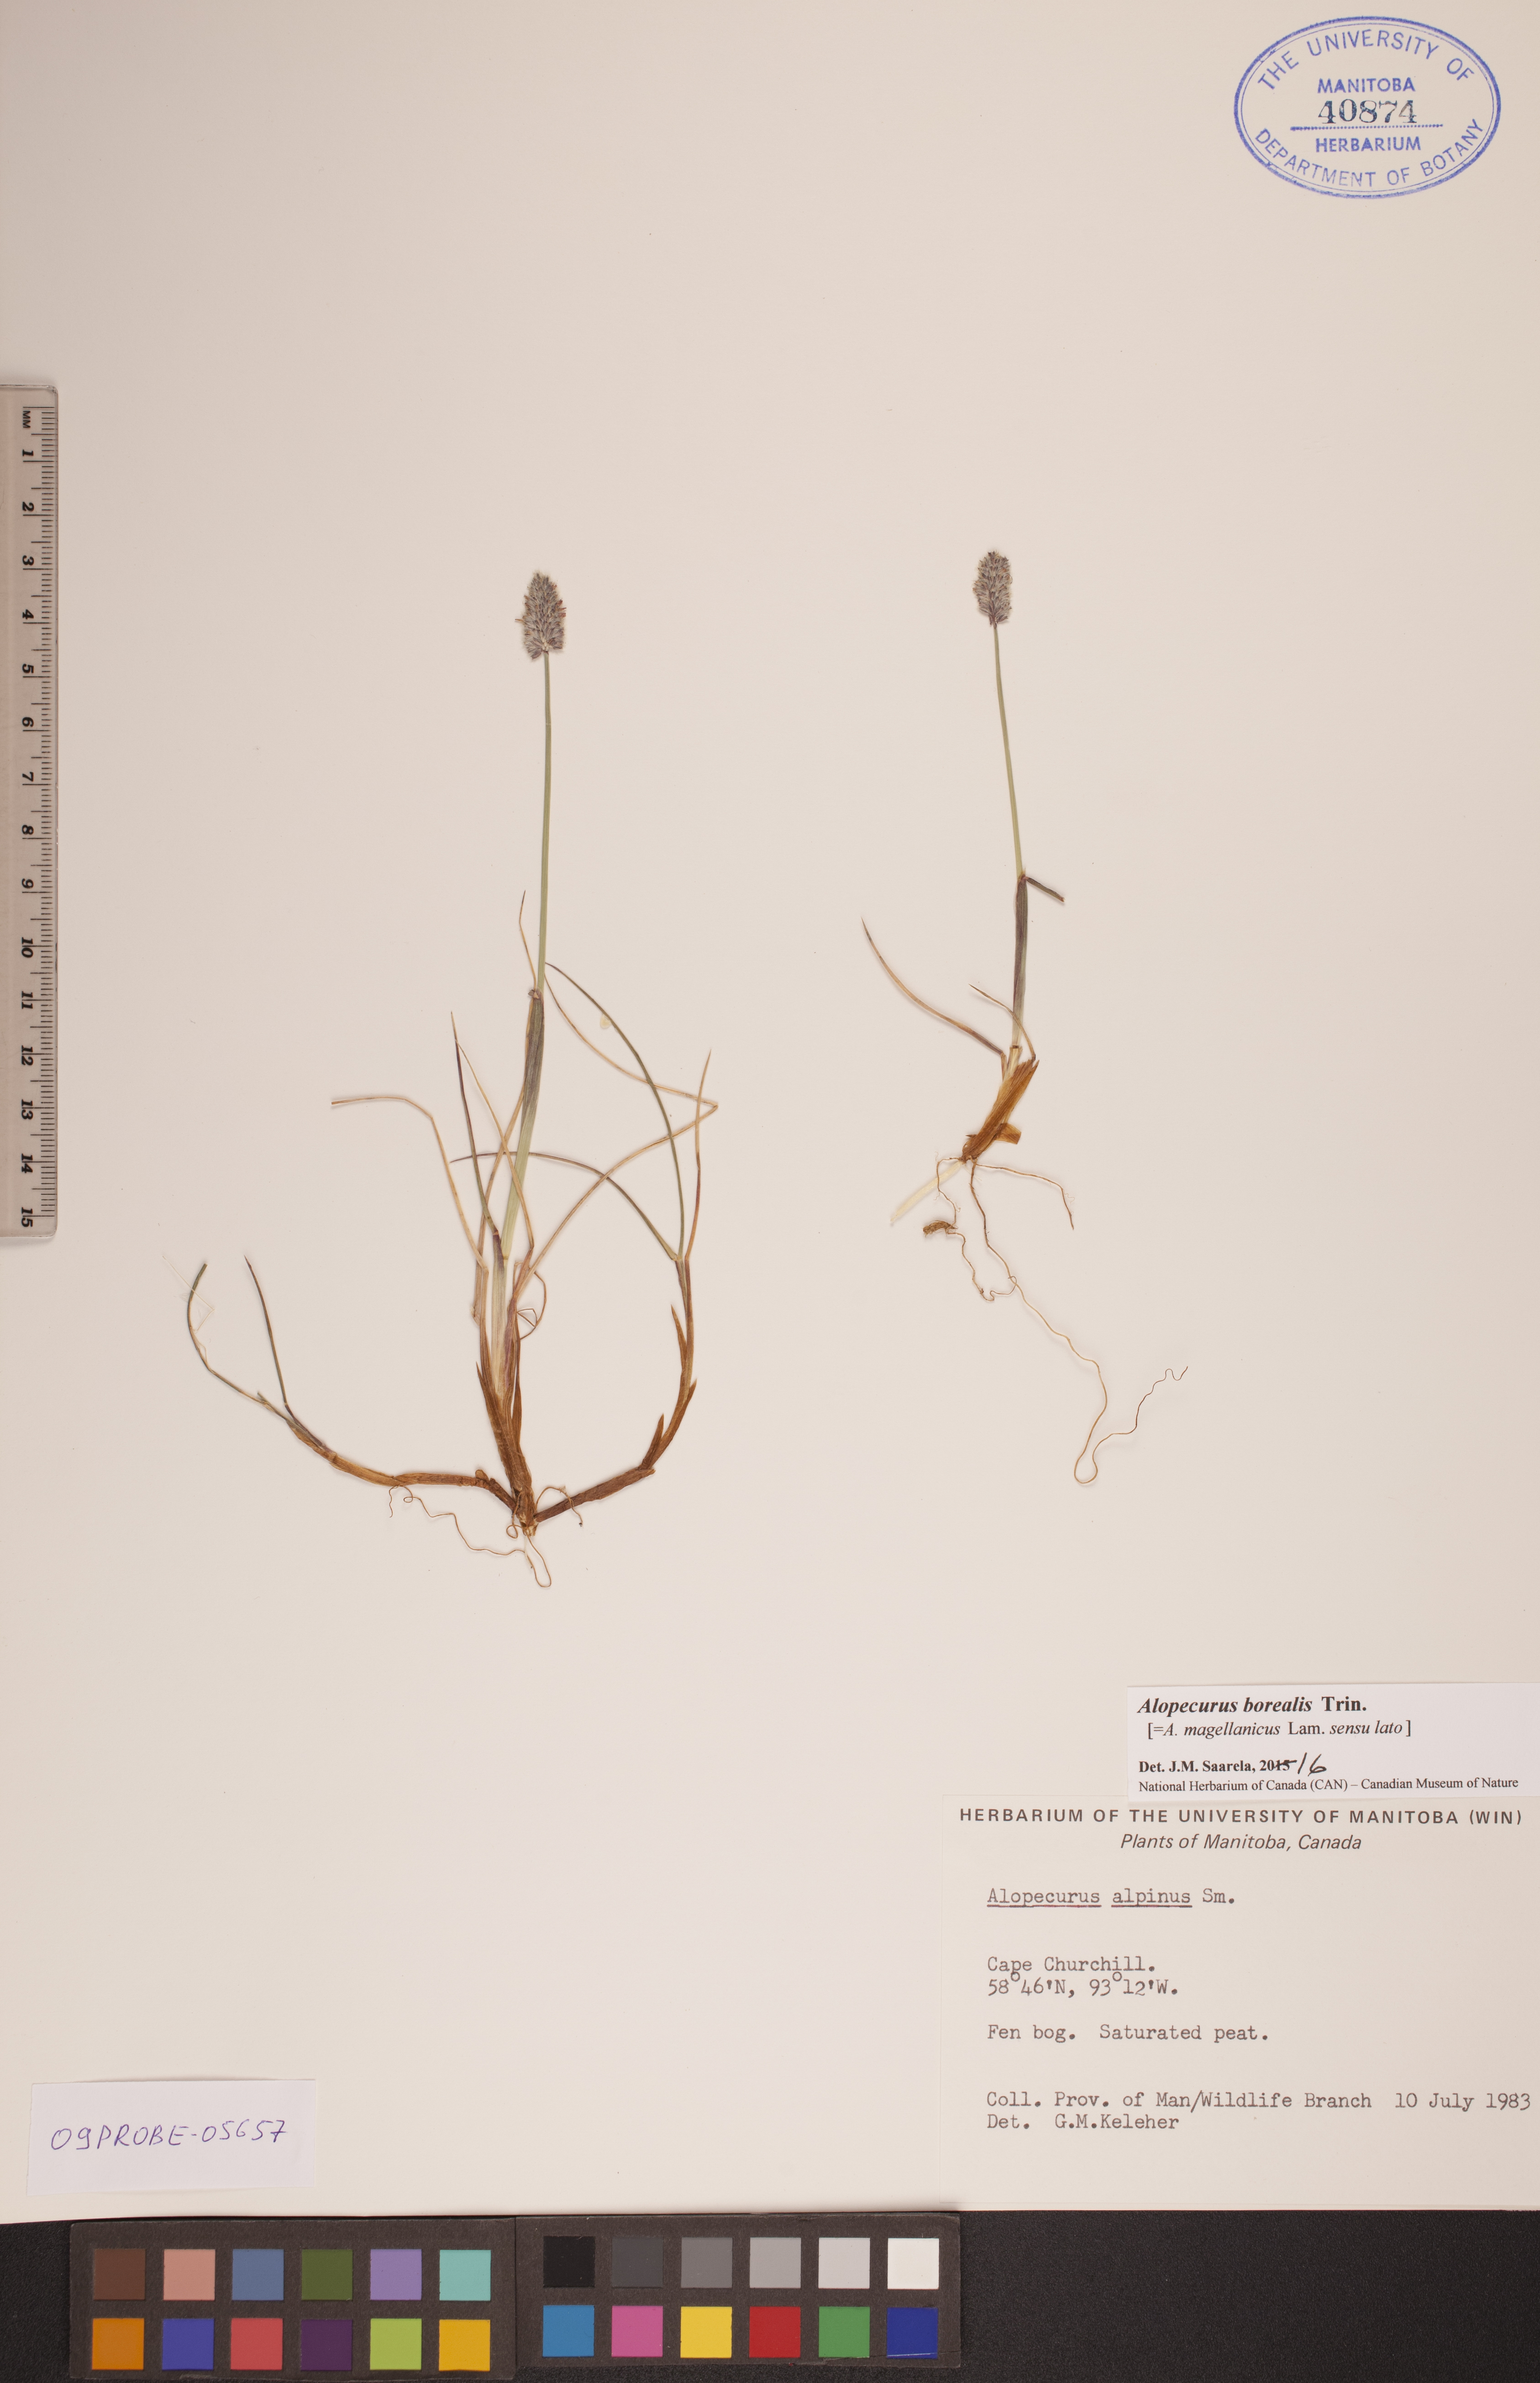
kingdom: Plantae
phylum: Tracheophyta
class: Liliopsida
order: Poales
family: Poaceae
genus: Alopecurus
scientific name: Alopecurus magellanicus
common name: Alpine foxtail
